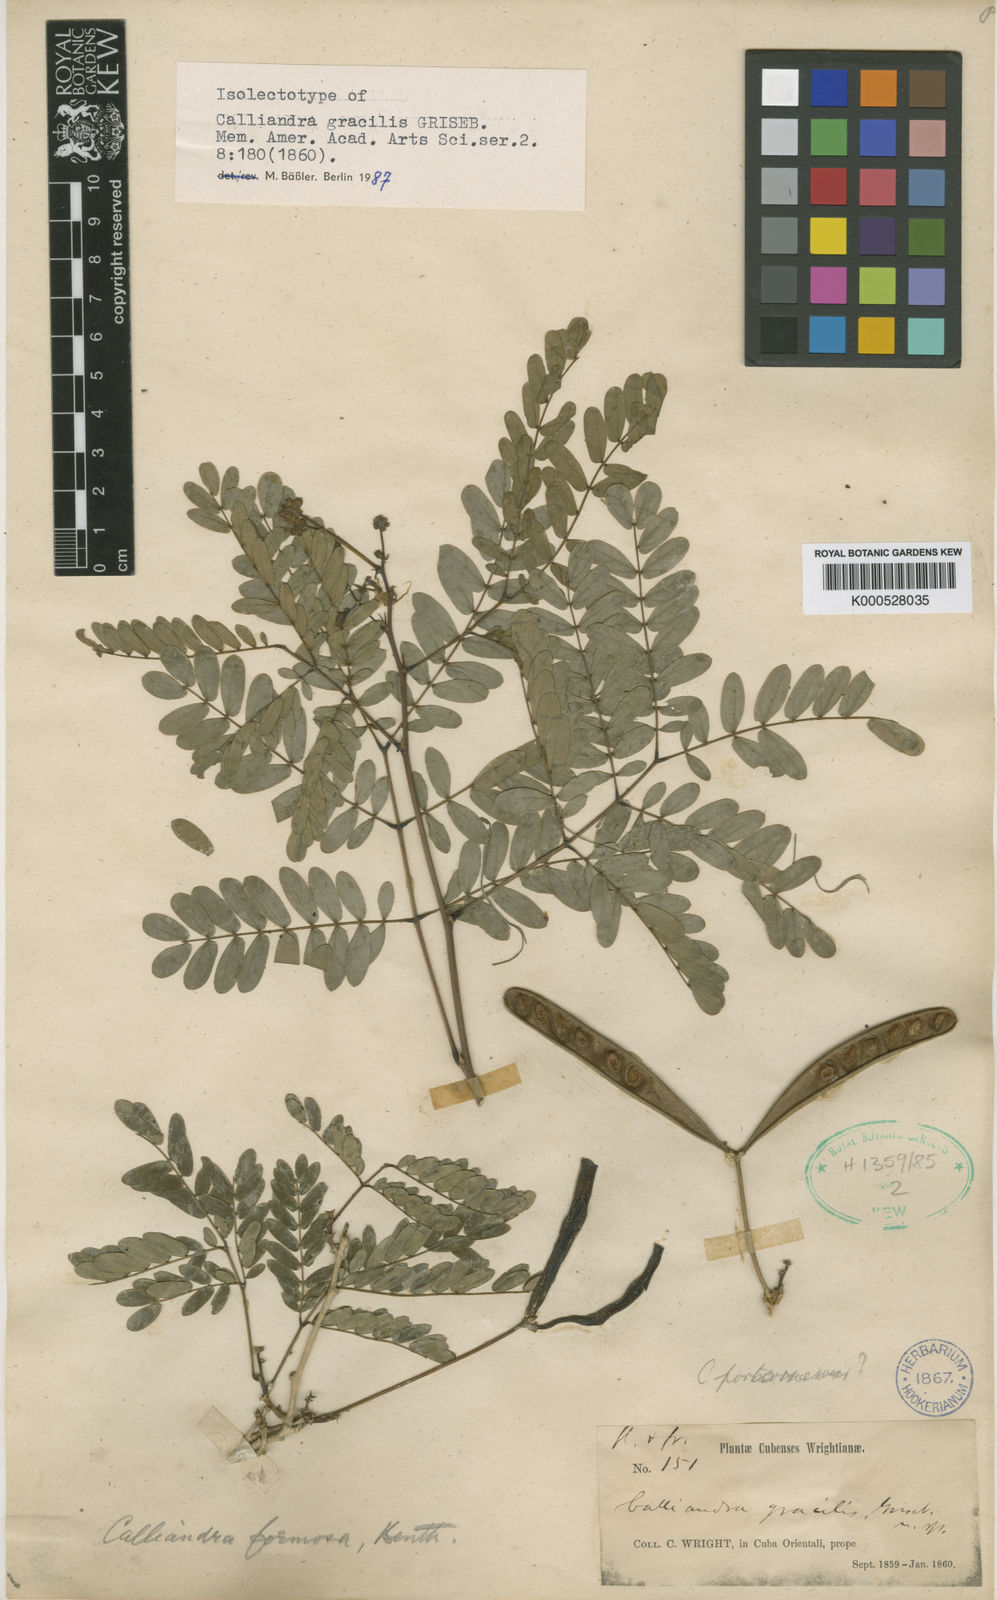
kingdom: Plantae
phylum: Tracheophyta
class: Magnoliopsida
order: Fabales
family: Fabaceae
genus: Zapoteca
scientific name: Zapoteca gracilis
